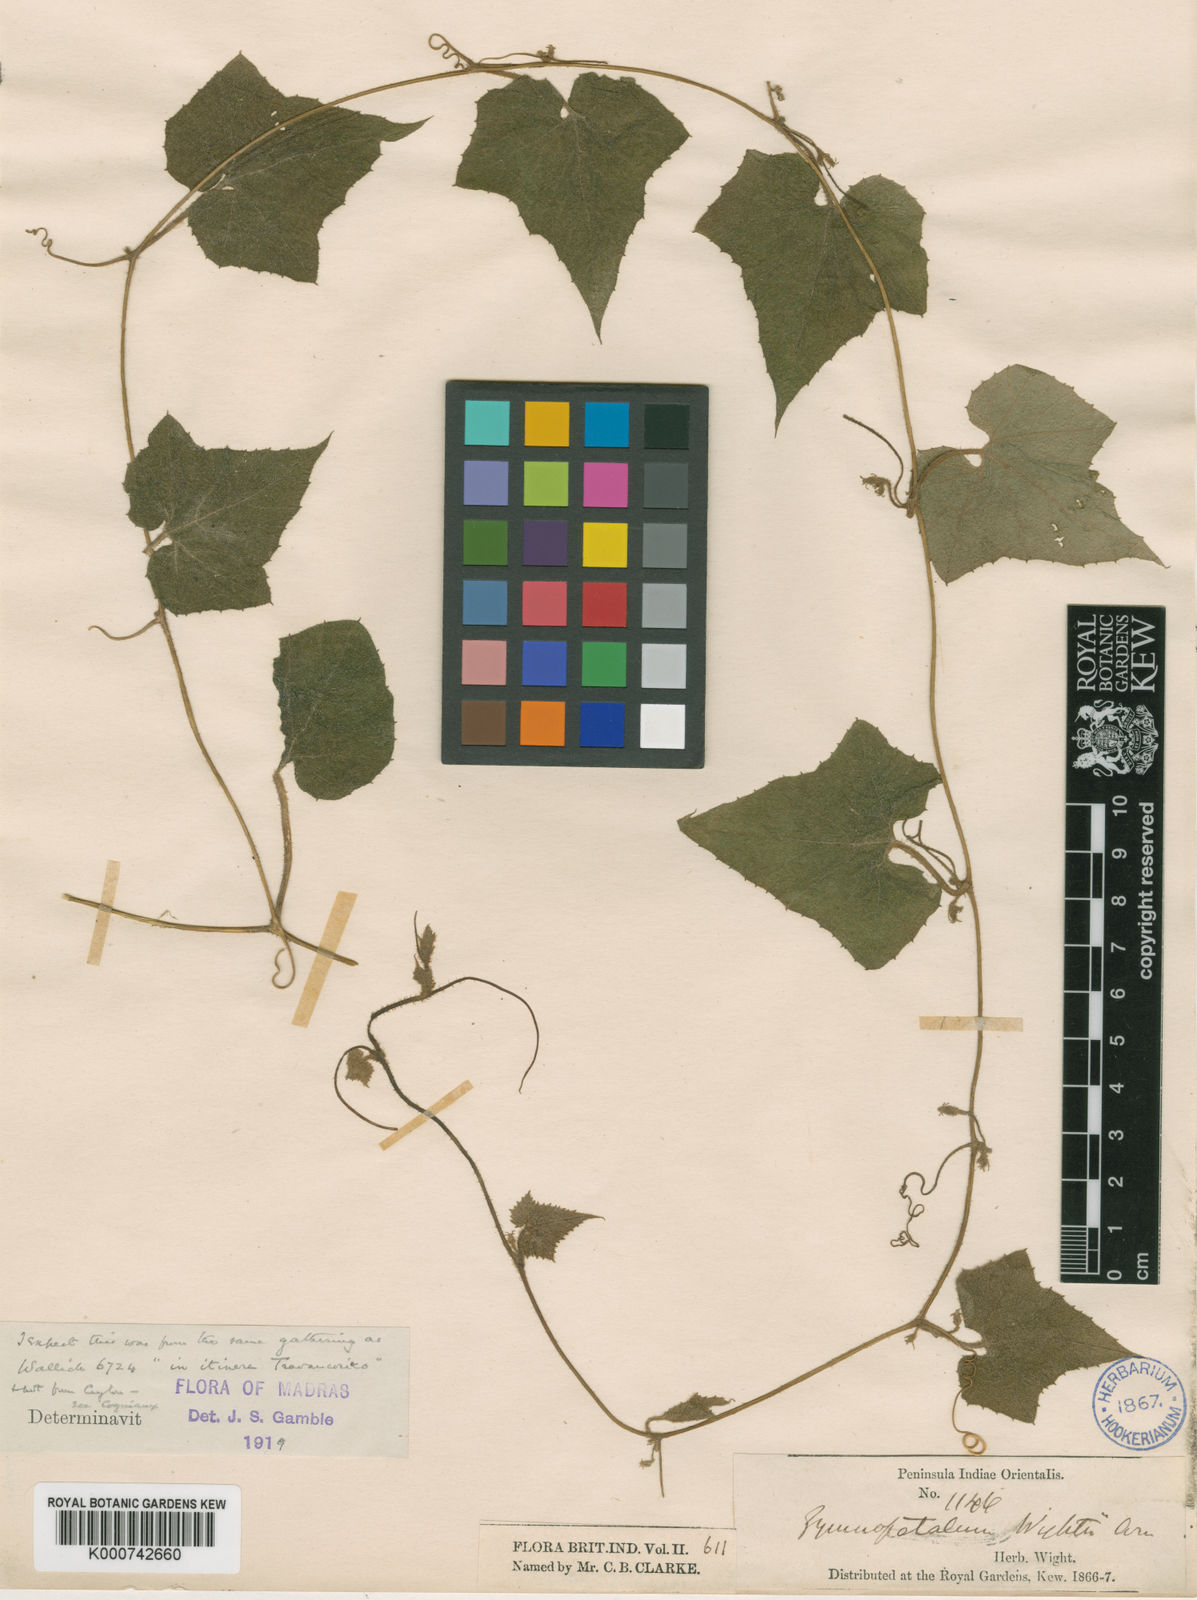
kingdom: Plantae
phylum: Tracheophyta
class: Magnoliopsida
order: Cucurbitales
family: Cucurbitaceae
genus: Trichosanthes
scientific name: Trichosanthes tubiflora
